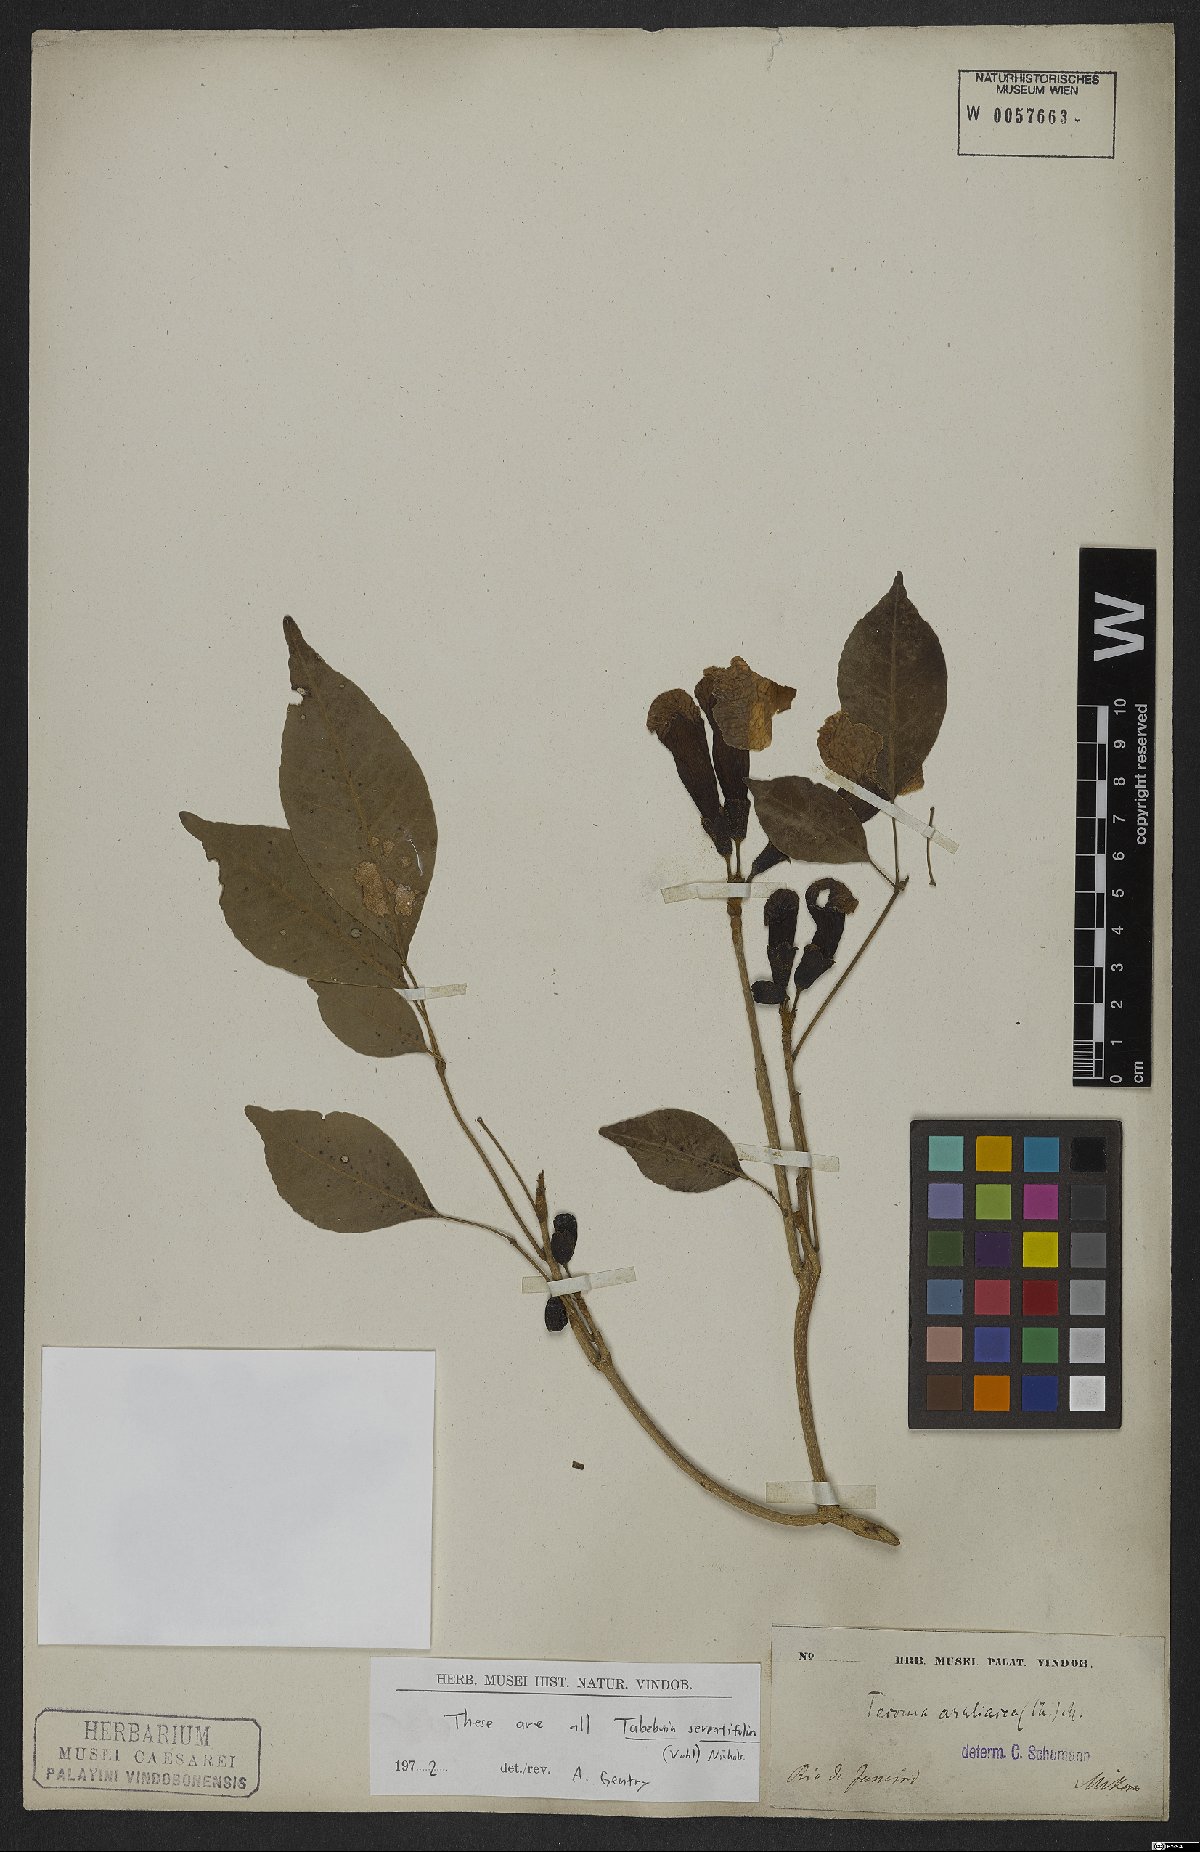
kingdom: Plantae
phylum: Tracheophyta
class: Magnoliopsida
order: Lamiales
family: Bignoniaceae
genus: Handroanthus
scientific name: Handroanthus serratifolius
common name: Yellow ipe
